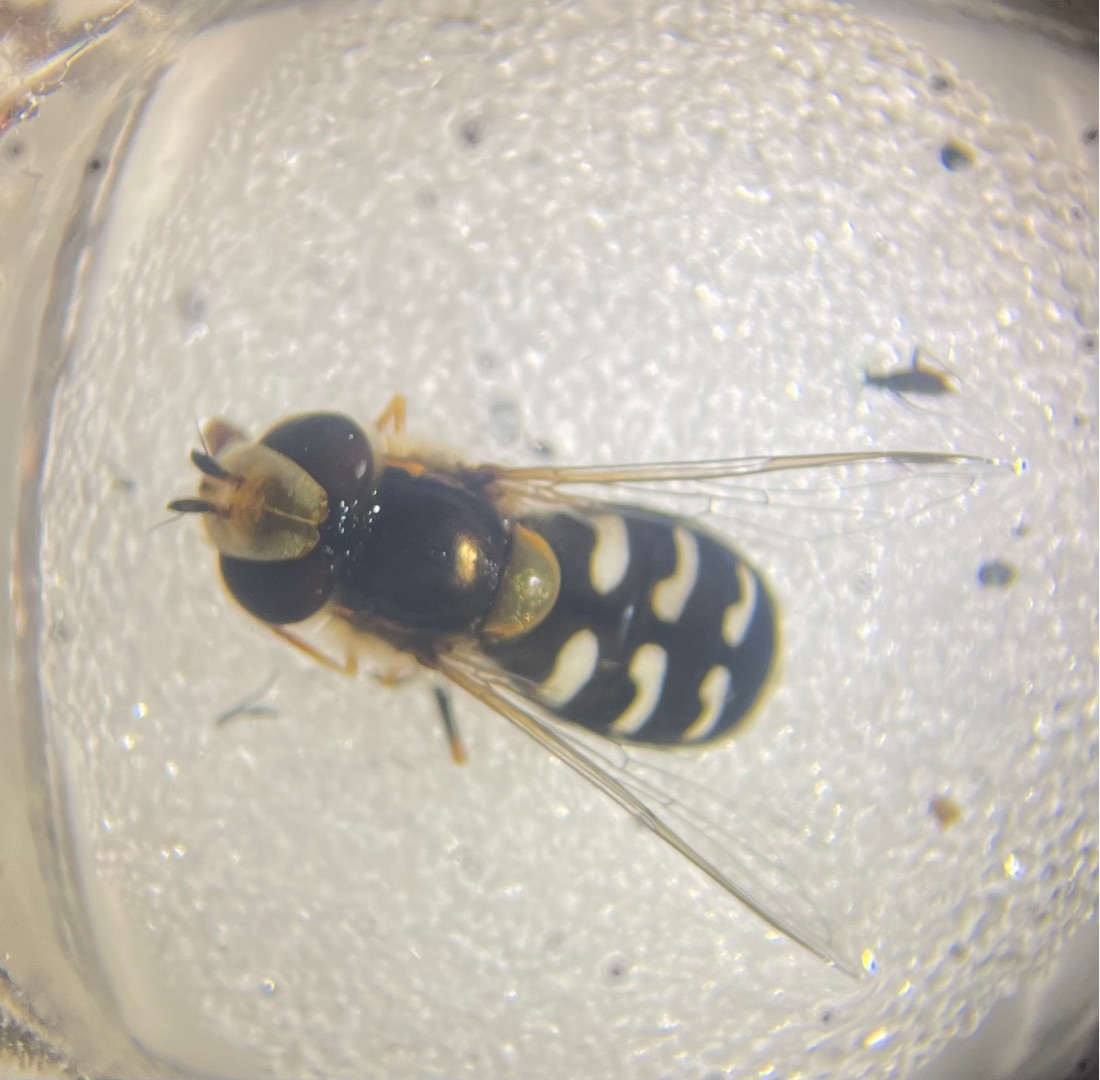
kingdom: Animalia
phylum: Arthropoda
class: Insecta
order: Diptera
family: Syrphidae
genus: Scaeva
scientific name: Scaeva pyrastri
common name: Hvidplettet agersvirreflue
